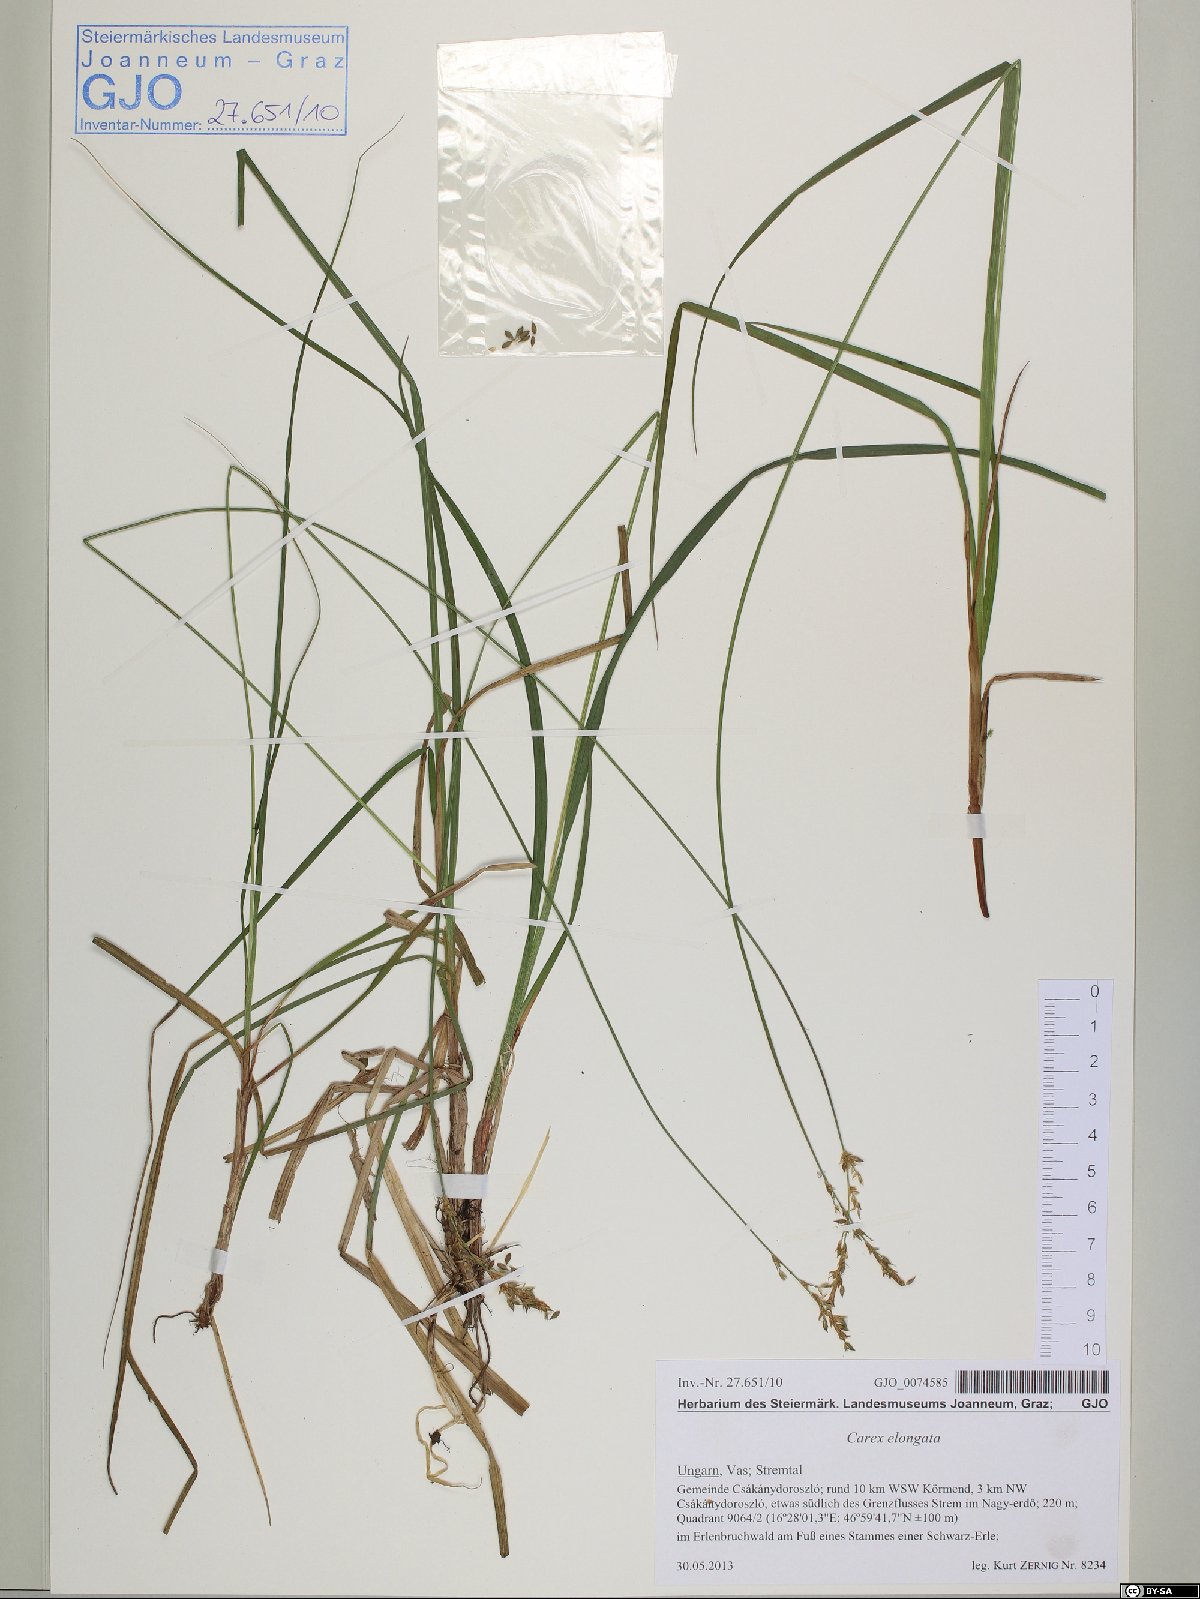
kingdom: Plantae
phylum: Tracheophyta
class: Liliopsida
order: Poales
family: Cyperaceae
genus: Carex
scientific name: Carex elongata
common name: Elongated sedge
